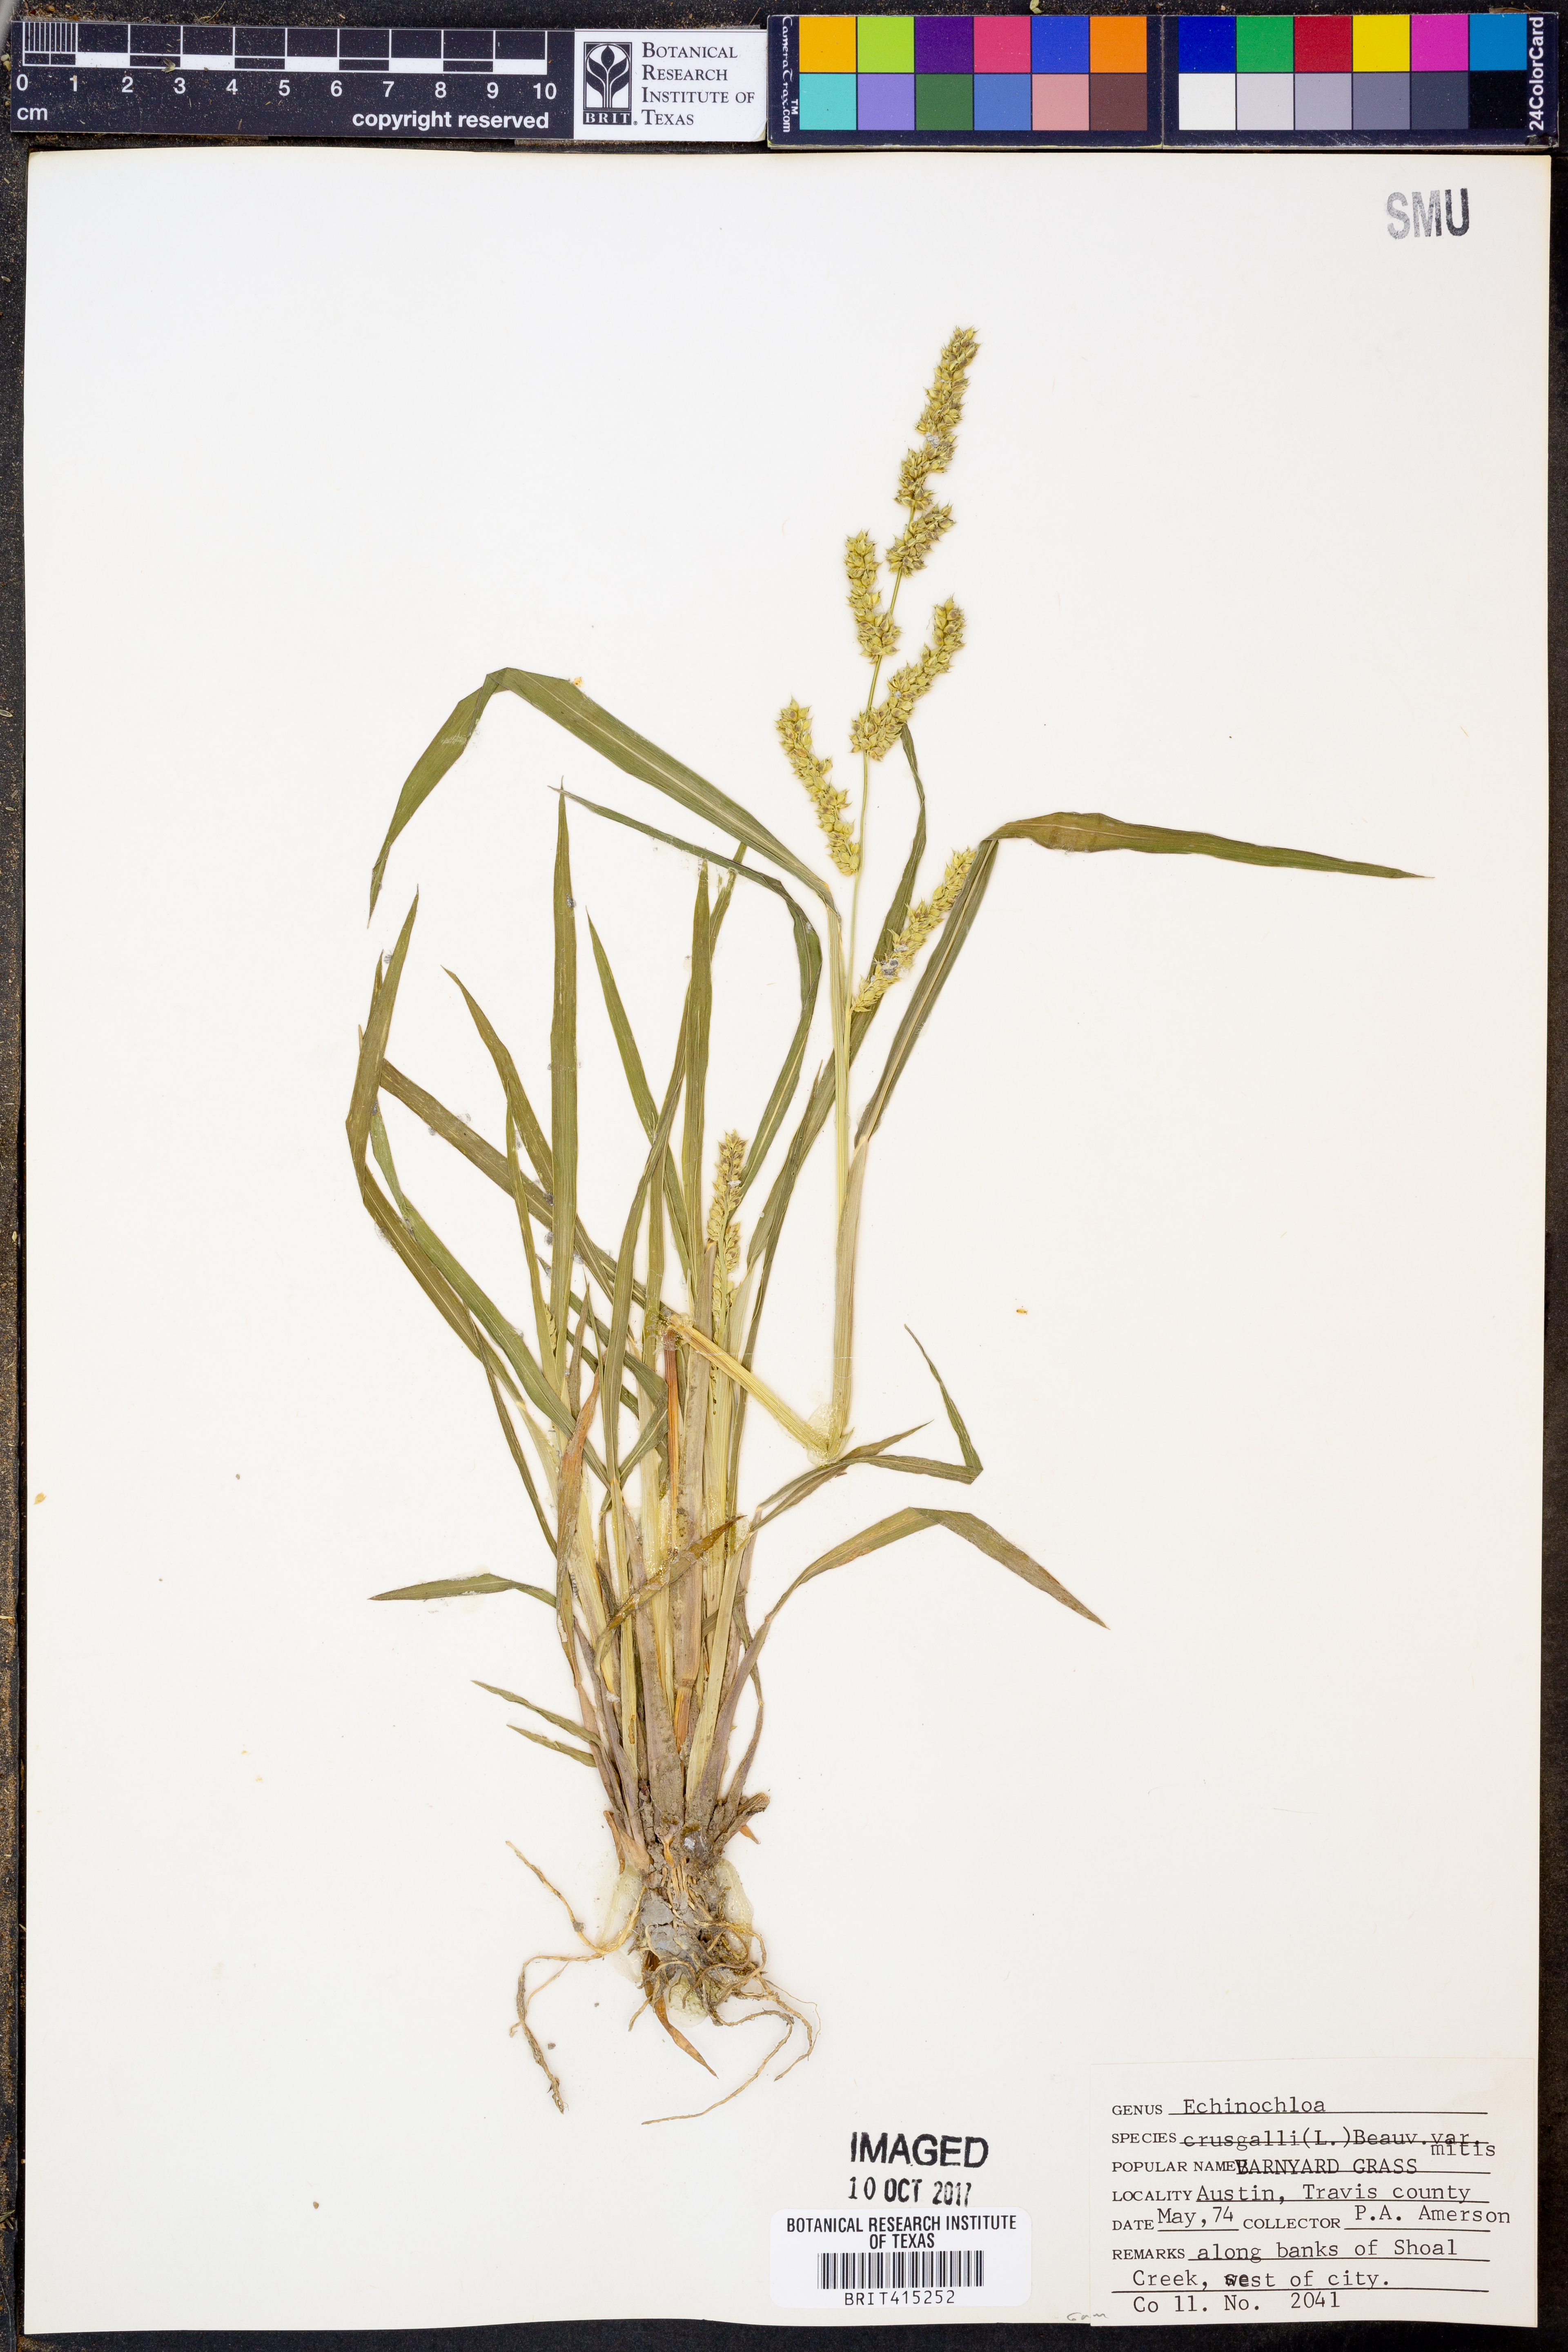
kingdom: Plantae
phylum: Tracheophyta
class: Liliopsida
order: Poales
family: Poaceae
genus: Echinochloa
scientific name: Echinochloa crus-galli
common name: Cockspur
